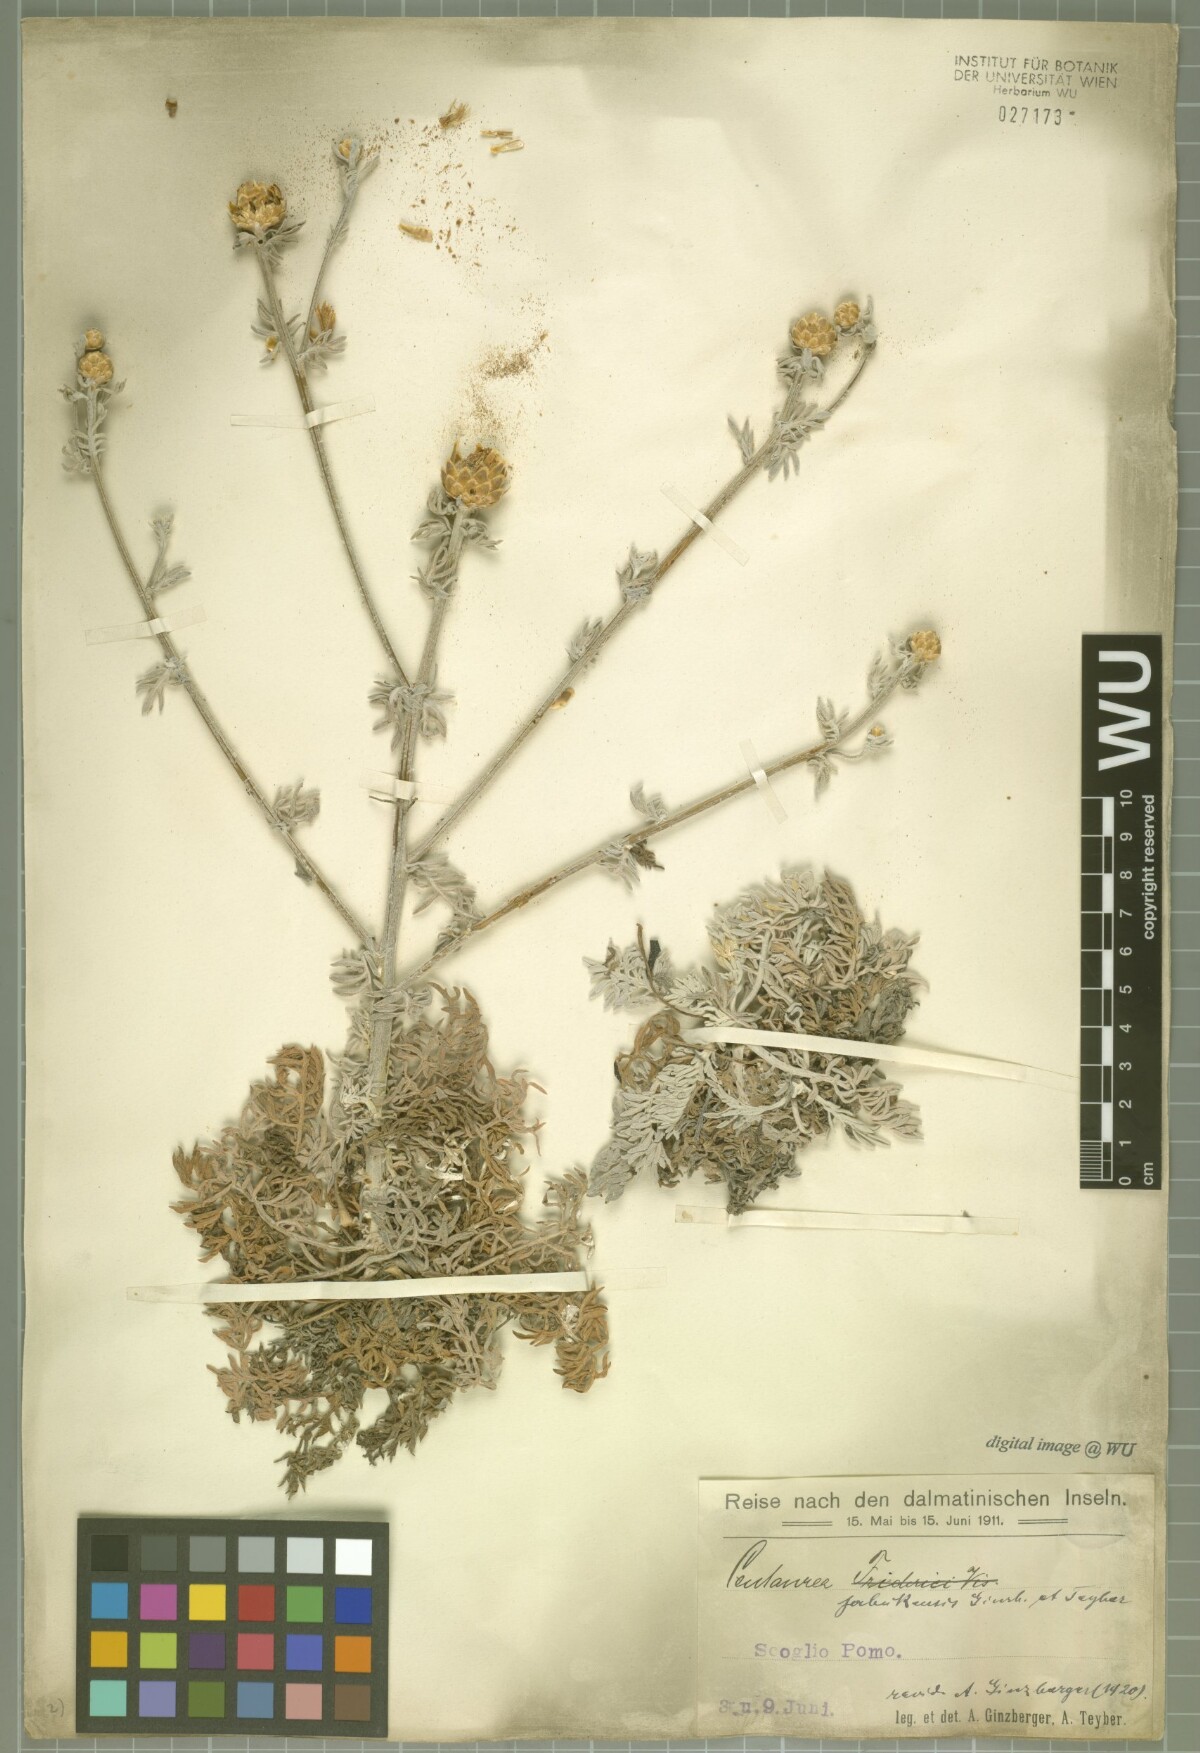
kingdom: Plantae
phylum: Tracheophyta
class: Magnoliopsida
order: Asterales
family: Asteraceae
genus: Centaurea
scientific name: Centaurea friderici
